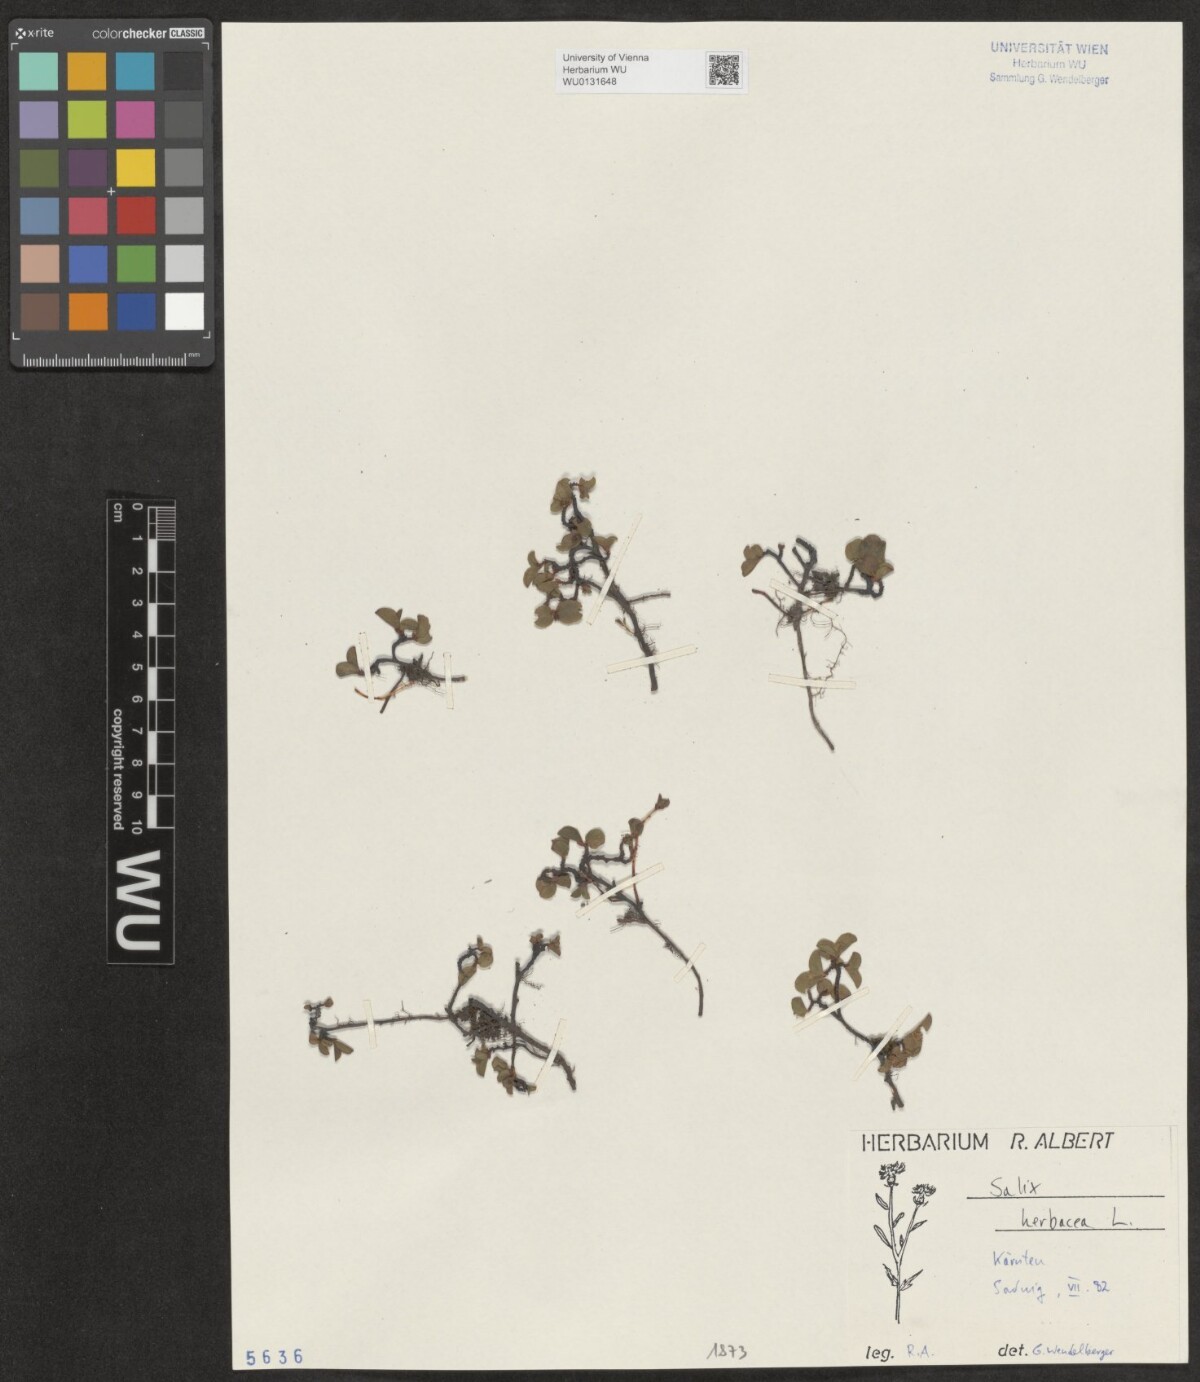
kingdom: Plantae
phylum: Tracheophyta
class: Magnoliopsida
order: Malpighiales
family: Salicaceae
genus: Salix
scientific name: Salix herbacea
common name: Dwarf willow
